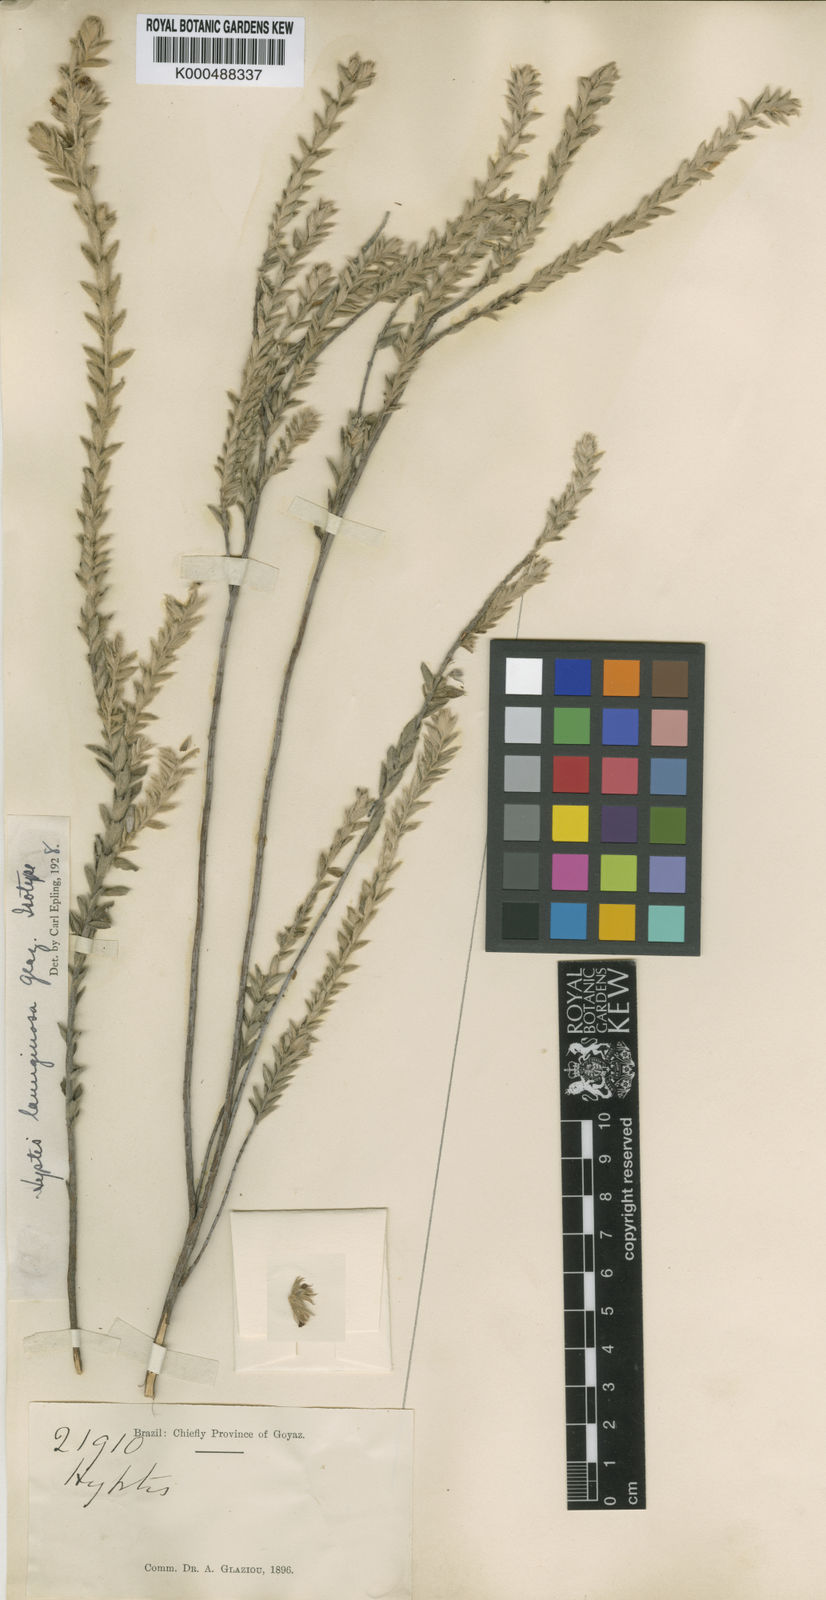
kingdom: Plantae
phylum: Tracheophyta
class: Magnoliopsida
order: Lamiales
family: Lamiaceae
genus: Hyptis
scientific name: Hyptis lanuginosa
